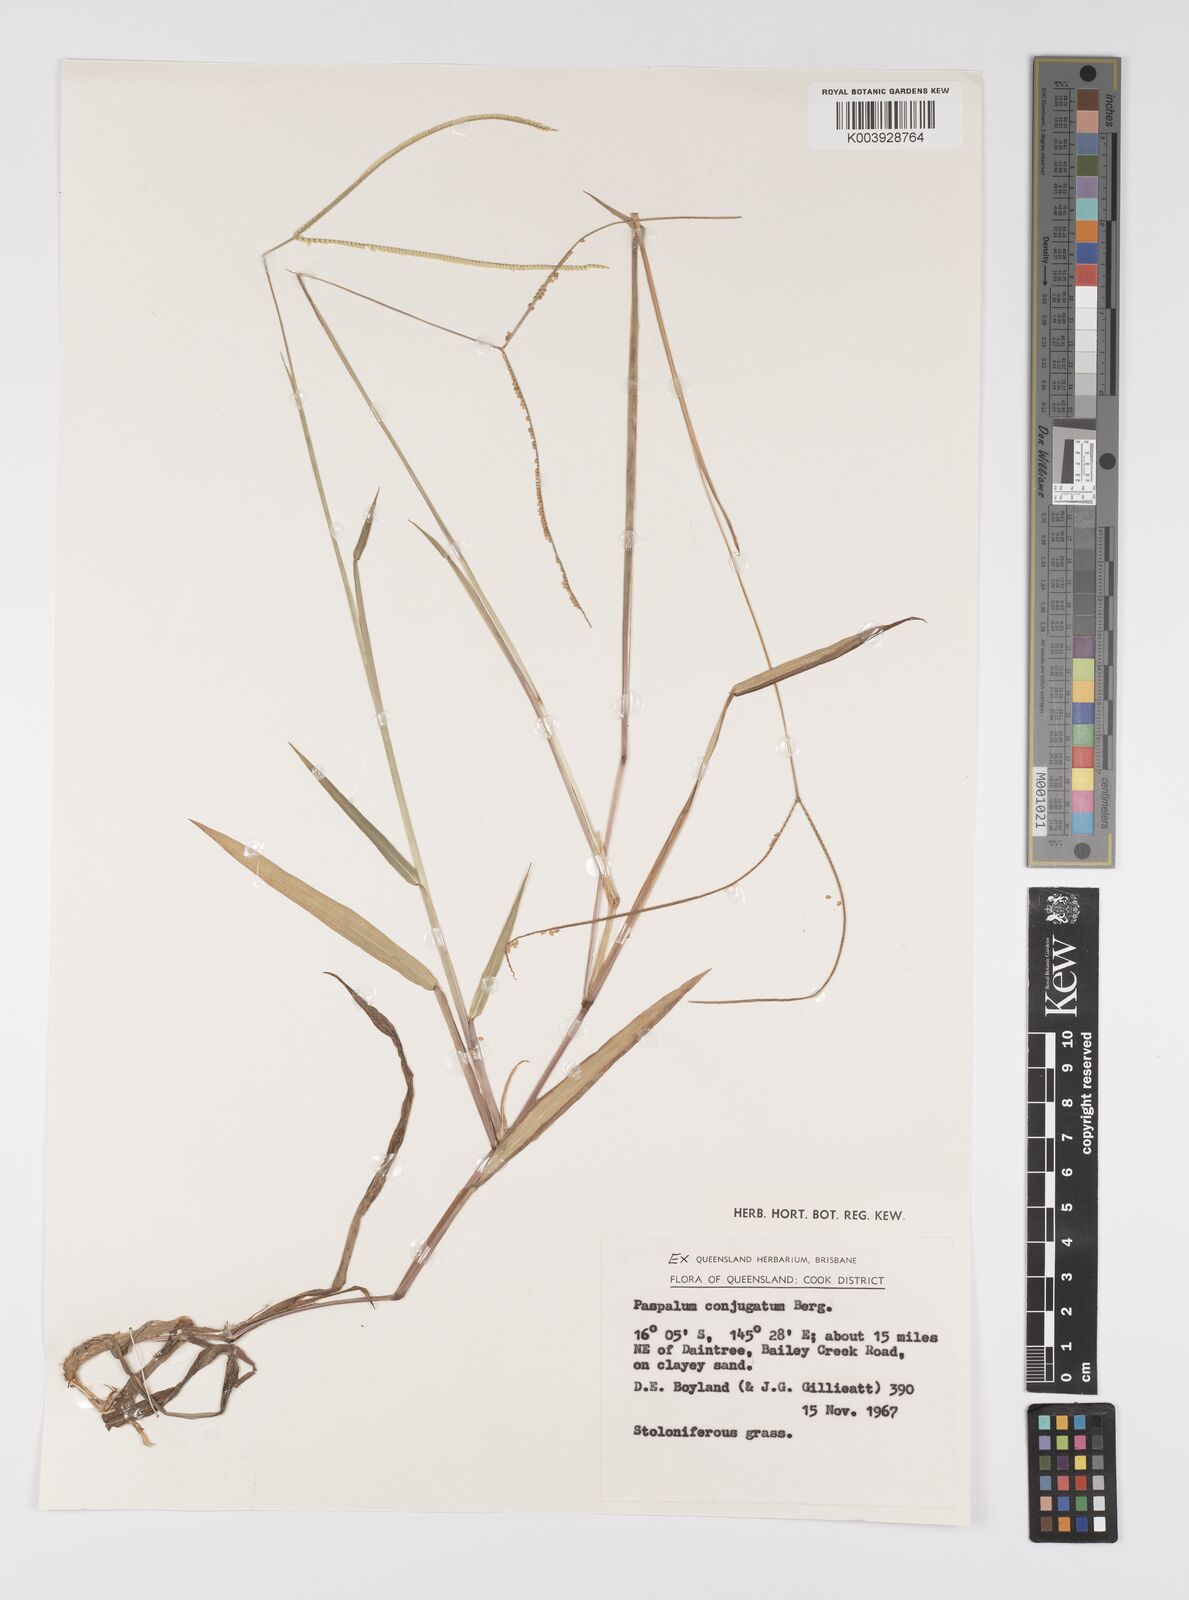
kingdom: Plantae
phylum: Tracheophyta
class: Liliopsida
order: Poales
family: Poaceae
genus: Paspalum
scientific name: Paspalum conjugatum
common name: Hilograss
